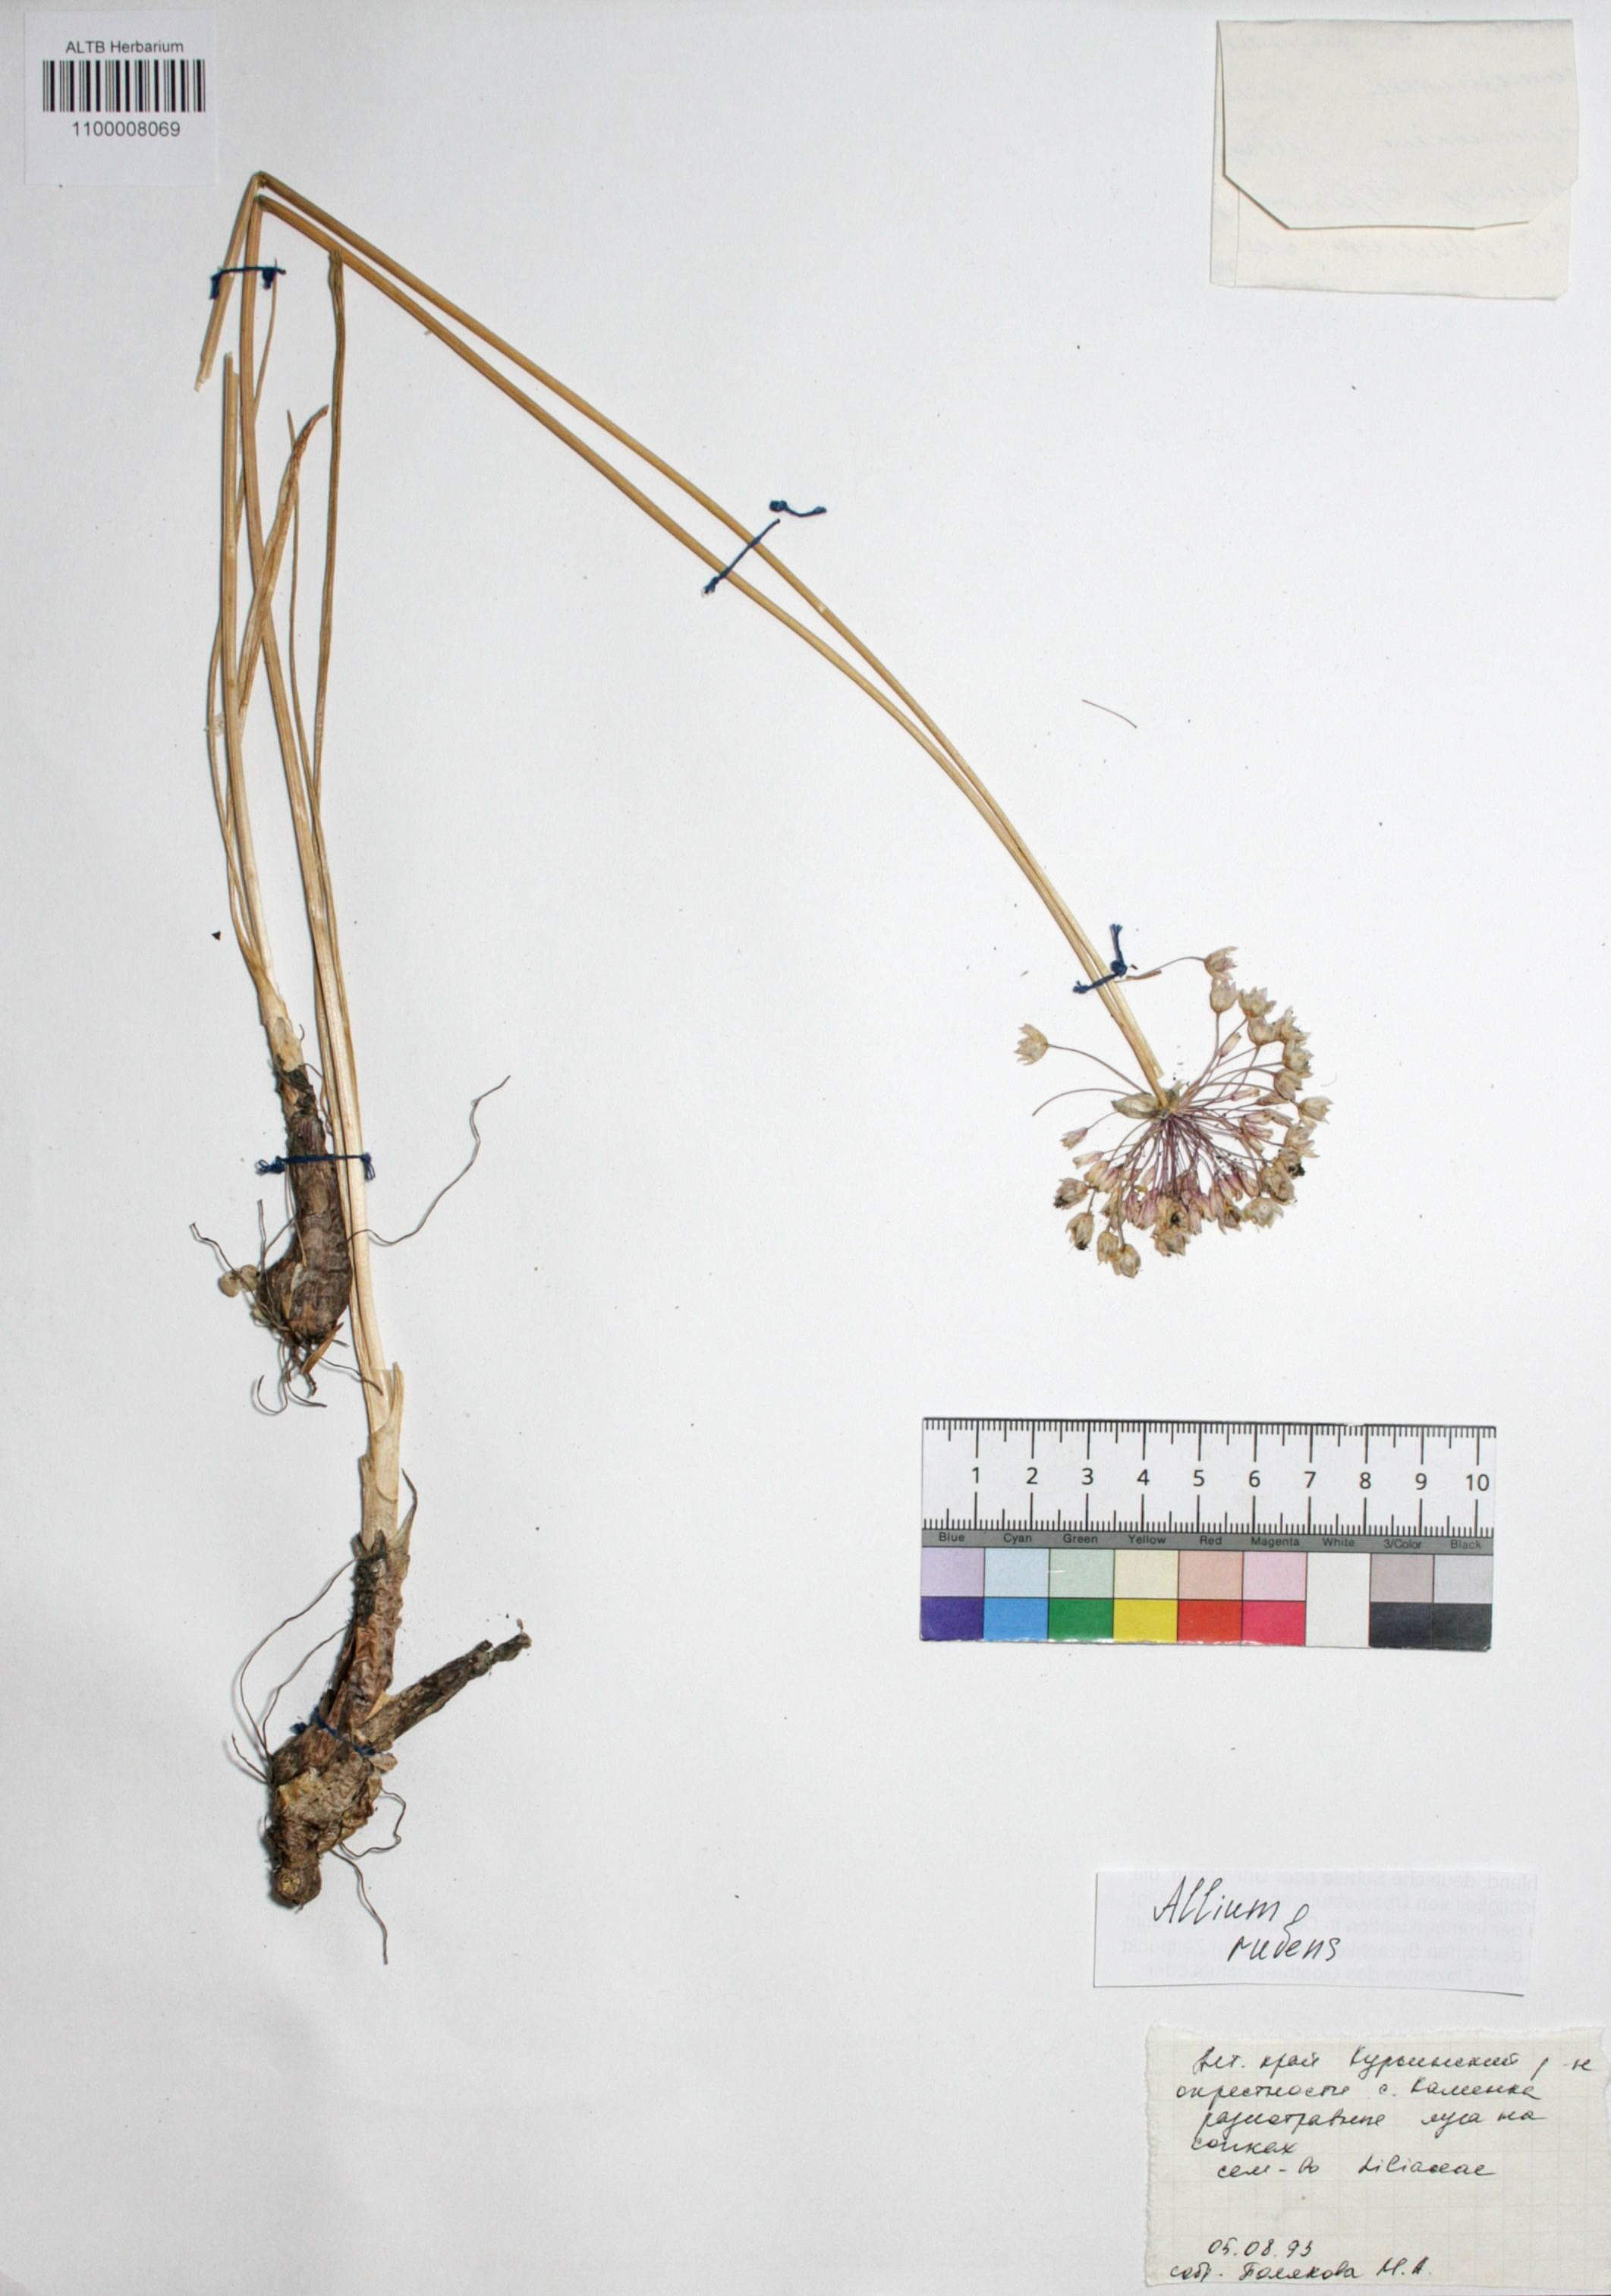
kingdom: Plantae
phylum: Tracheophyta
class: Liliopsida
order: Asparagales
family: Amaryllidaceae
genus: Allium
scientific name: Allium rubens
